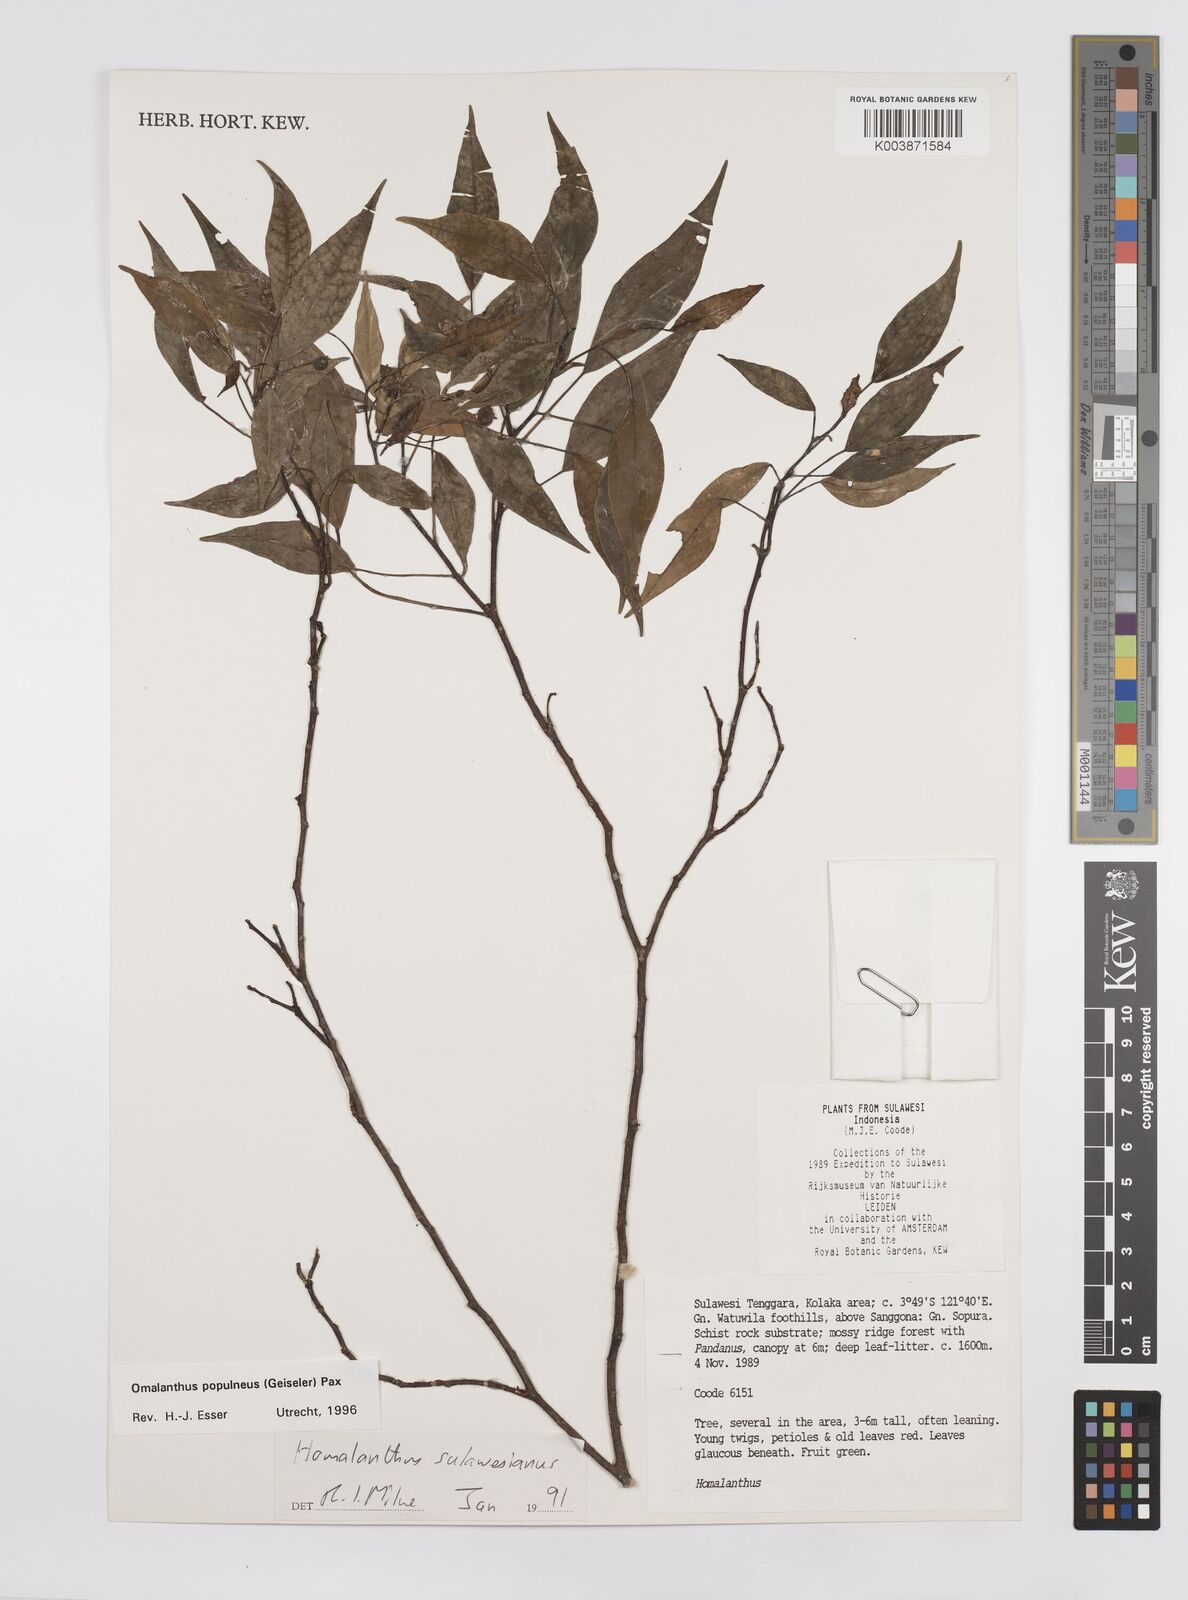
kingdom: Plantae
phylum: Tracheophyta
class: Magnoliopsida
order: Malpighiales
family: Euphorbiaceae
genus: Homalanthus
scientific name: Homalanthus populneus
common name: Spurge
